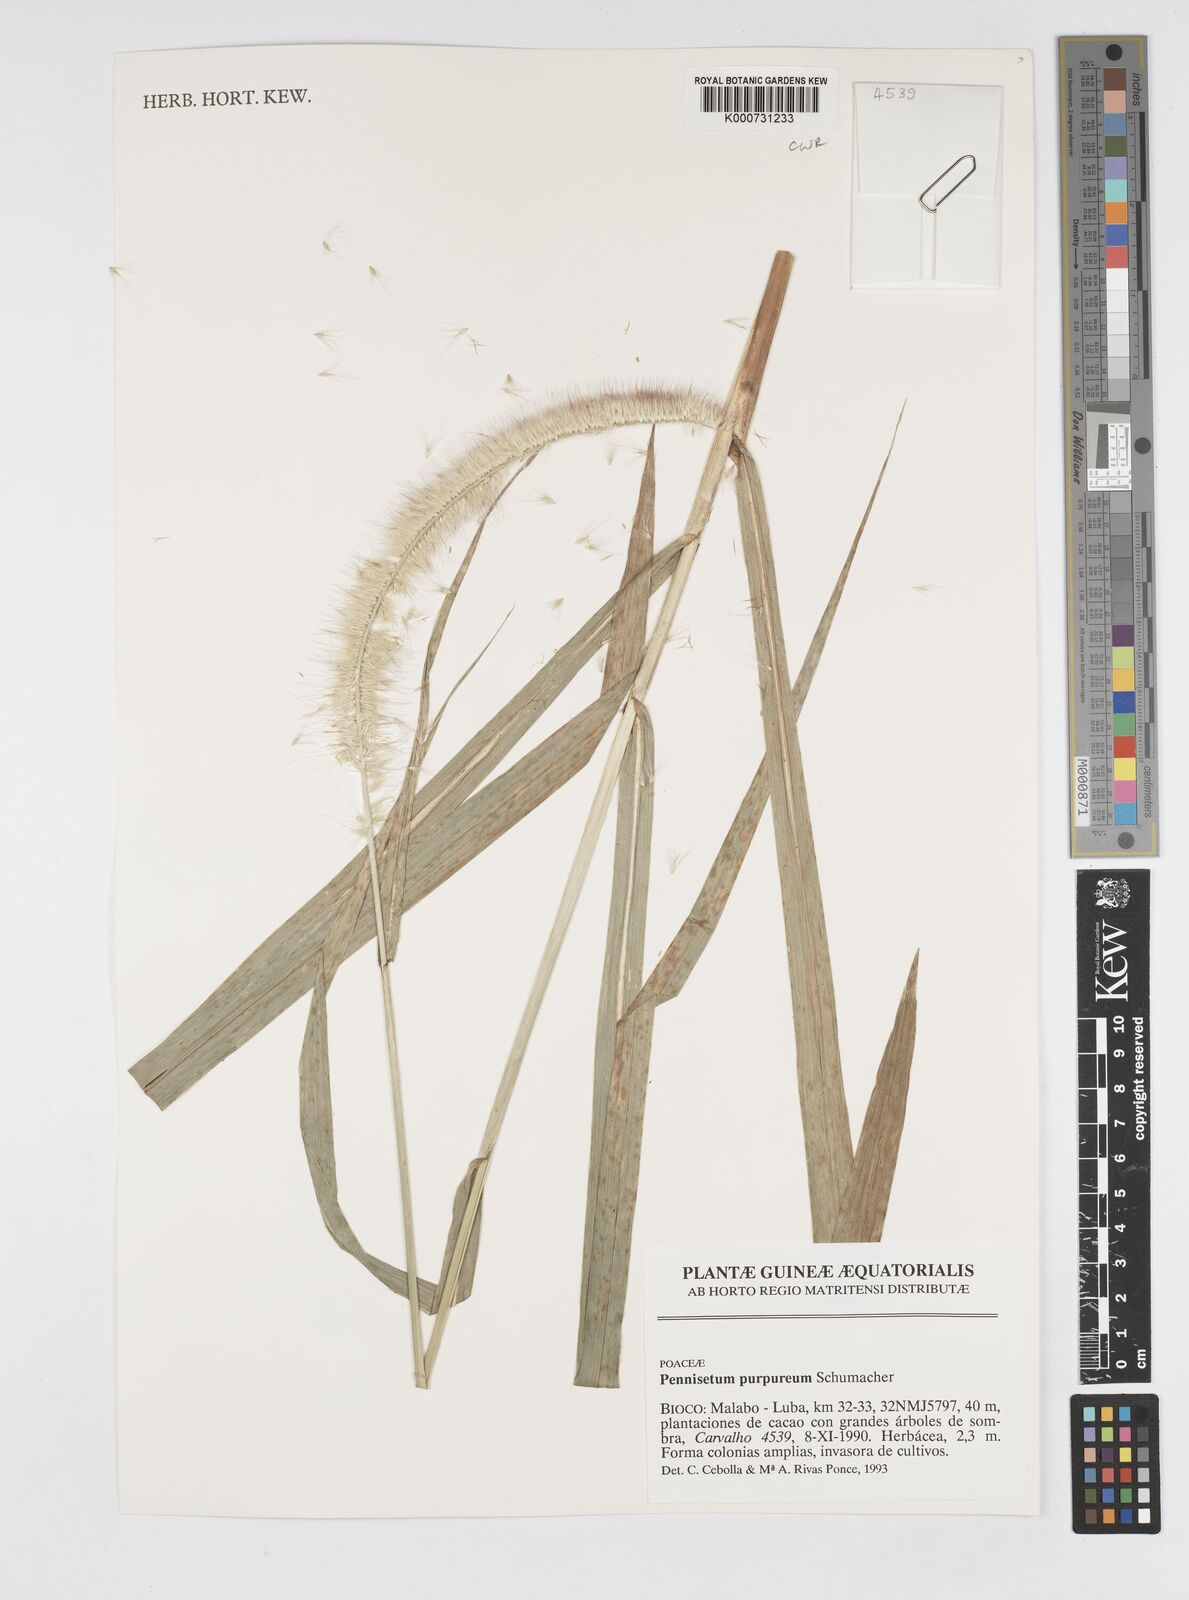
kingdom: Plantae
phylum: Tracheophyta
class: Liliopsida
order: Poales
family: Poaceae
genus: Cenchrus
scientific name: Cenchrus purpureus
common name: Elephant grass
